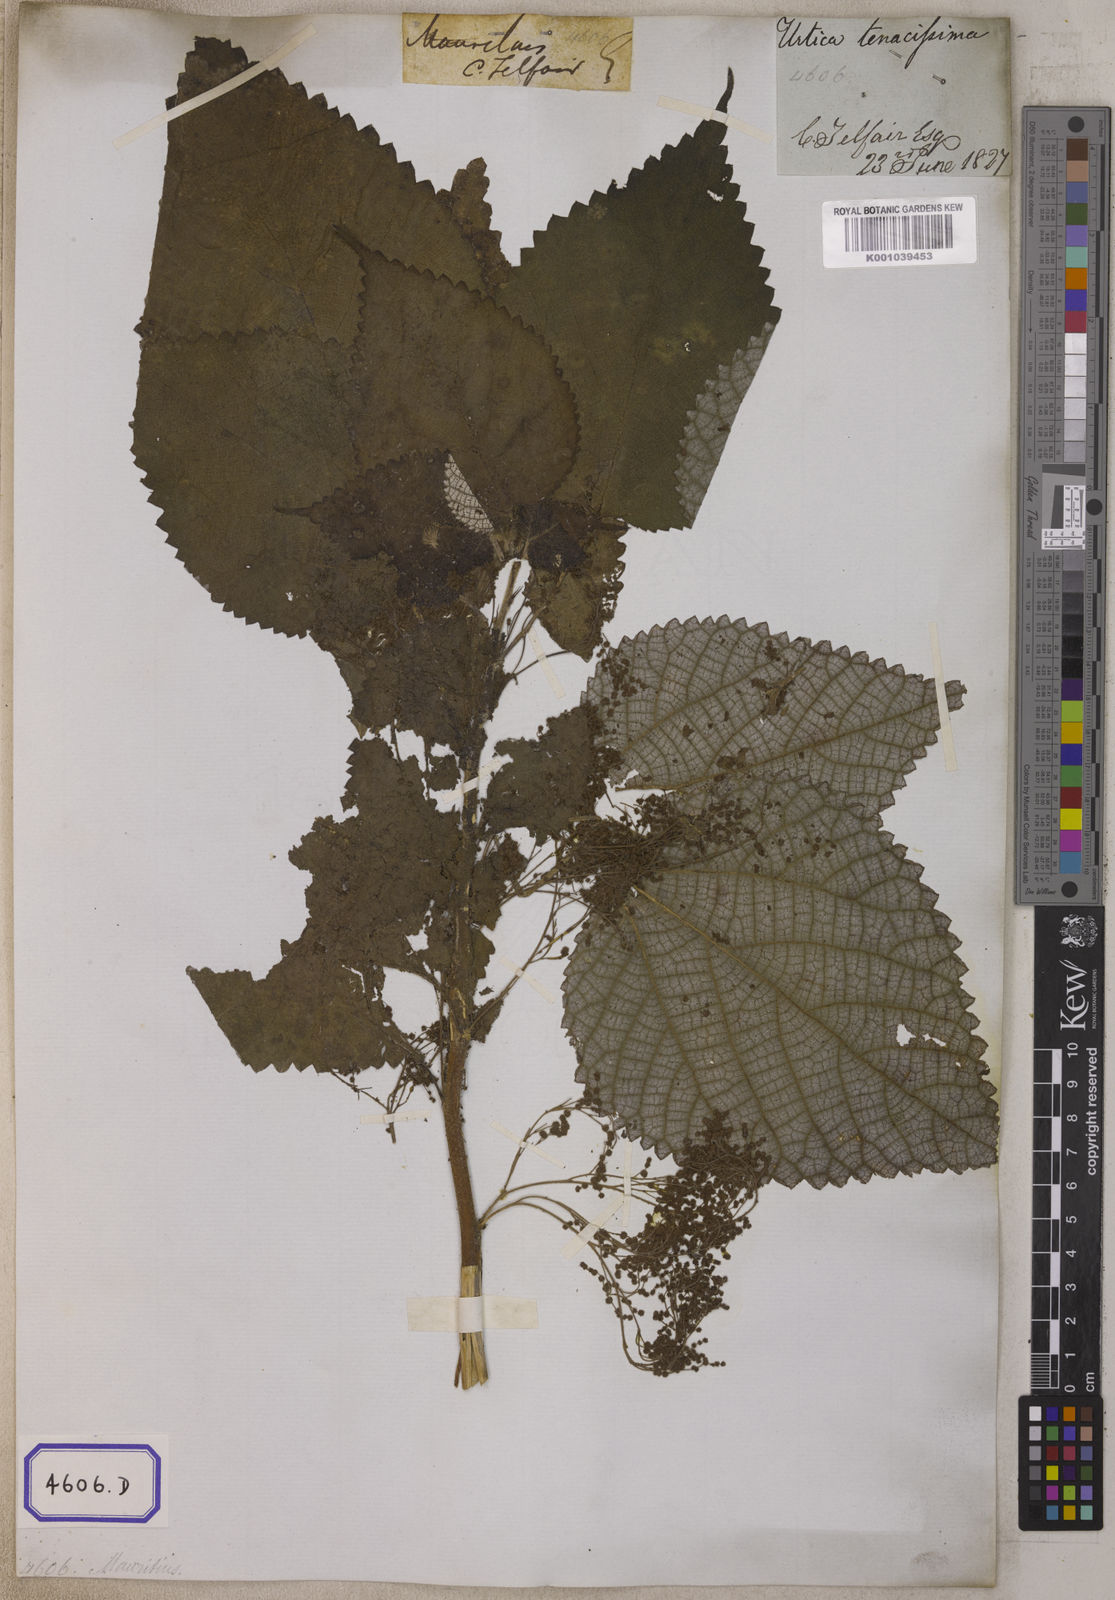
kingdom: Plantae
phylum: Tracheophyta
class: Magnoliopsida
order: Rosales
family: Urticaceae
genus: Boehmeria
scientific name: Boehmeria nivea
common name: Ramie chinese grass
